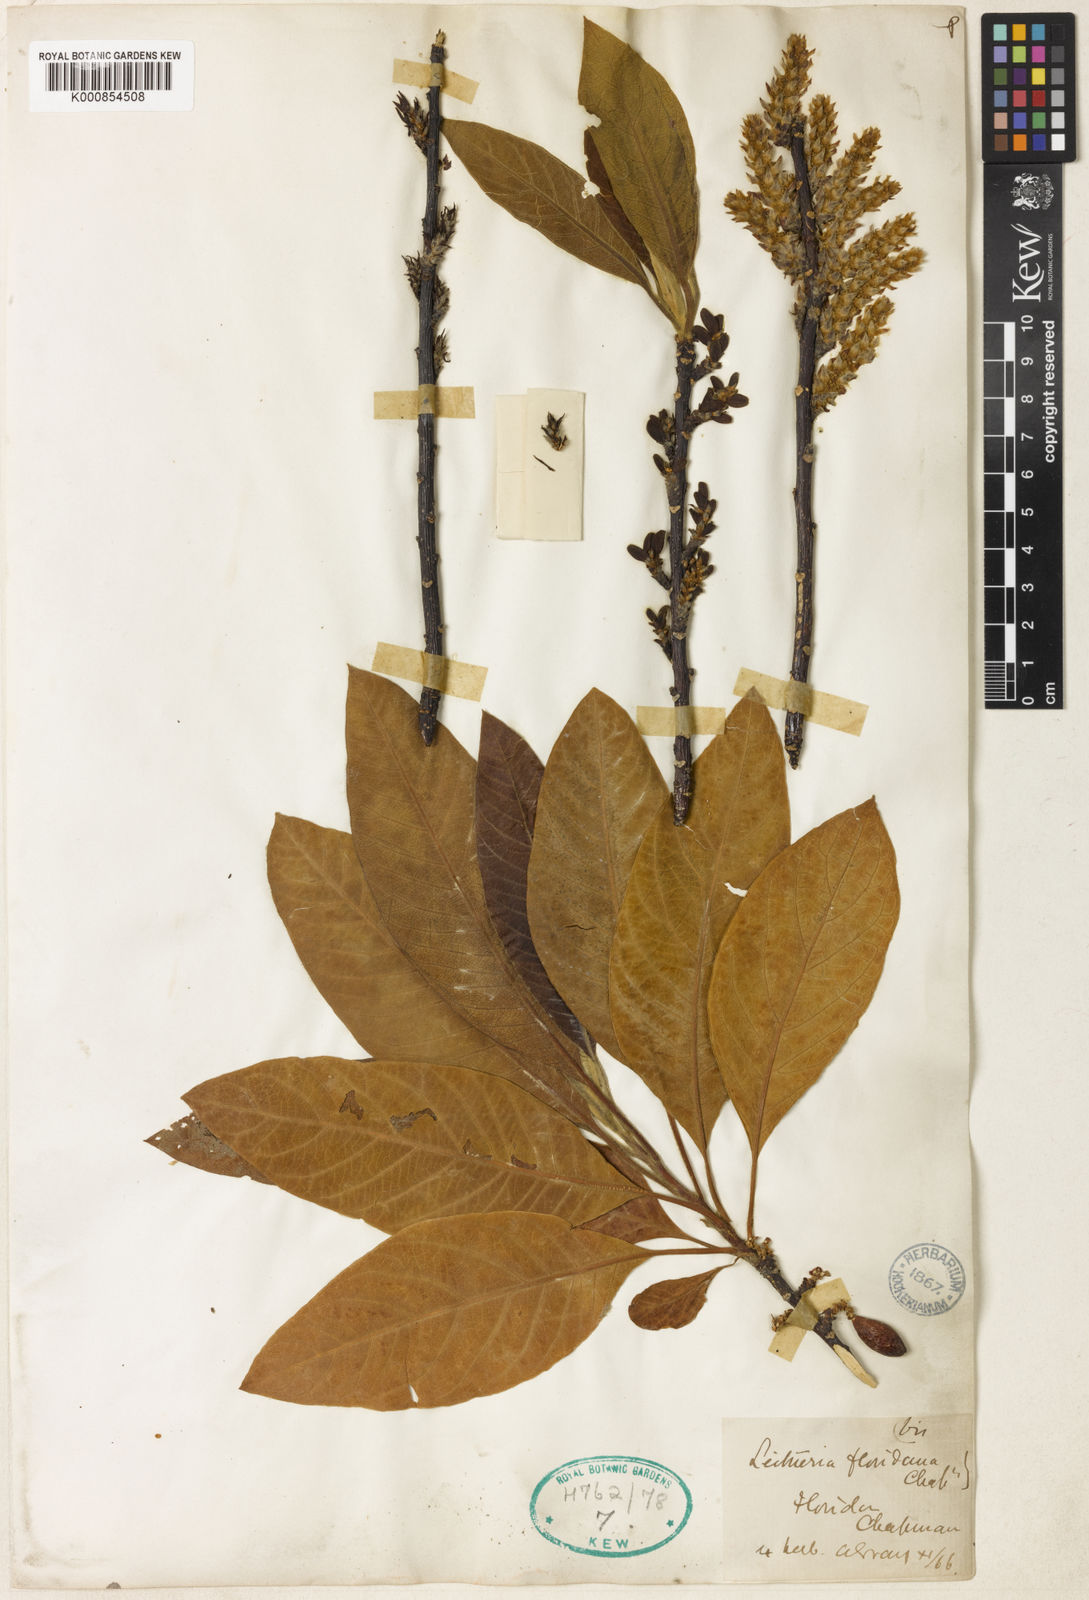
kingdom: Plantae
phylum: Tracheophyta
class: Magnoliopsida
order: Sapindales
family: Simaroubaceae
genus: Leitneria
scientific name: Leitneria floridana
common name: Corkwood
